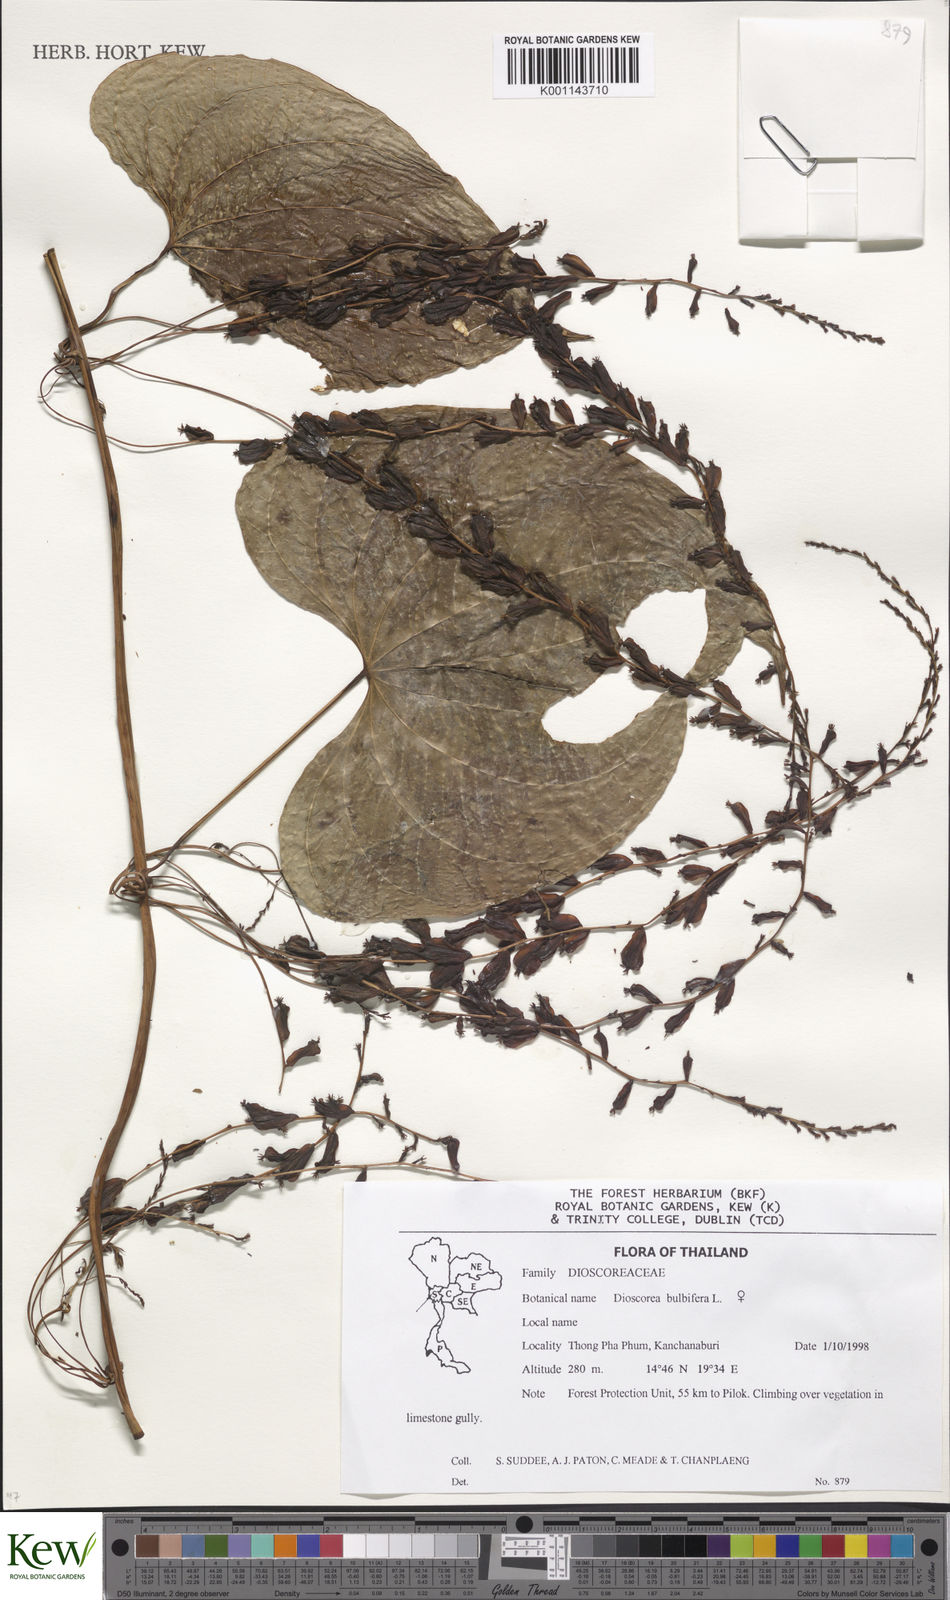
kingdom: Plantae
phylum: Tracheophyta
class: Liliopsida
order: Dioscoreales
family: Dioscoreaceae
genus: Dioscorea
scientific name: Dioscorea bulbifera
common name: Air yam
